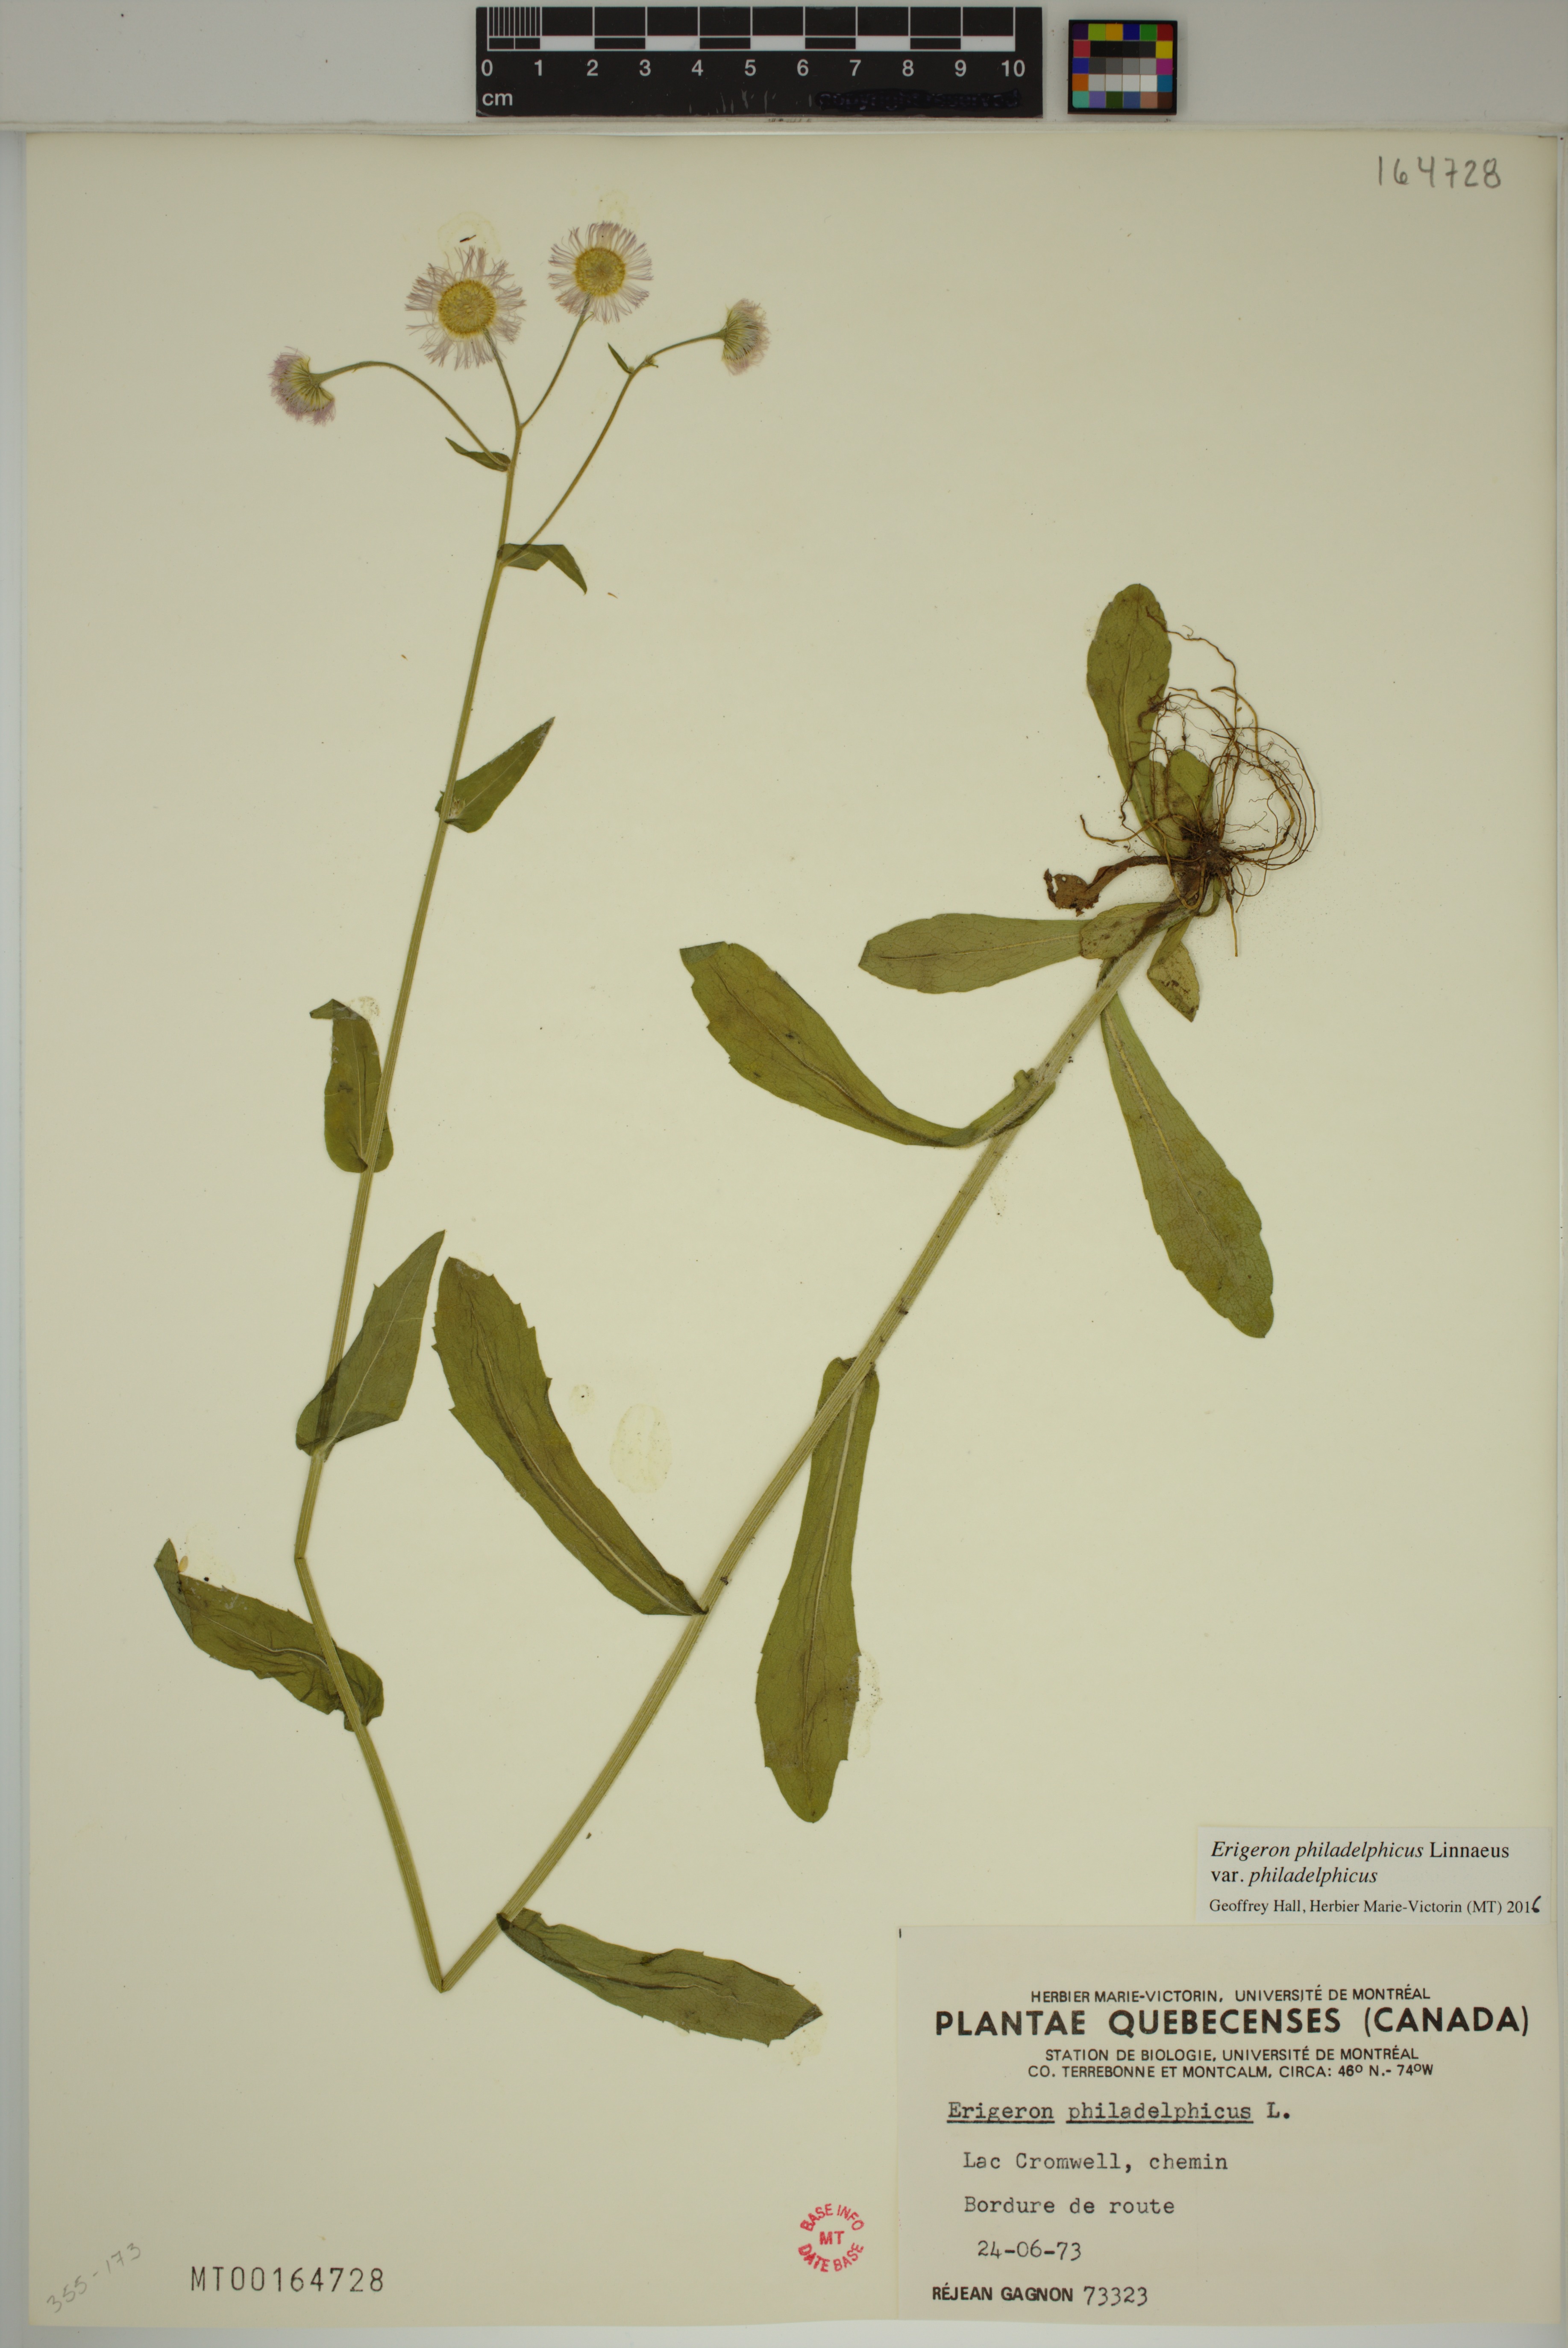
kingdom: Plantae
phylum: Tracheophyta
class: Magnoliopsida
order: Asterales
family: Asteraceae
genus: Erigeron
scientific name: Erigeron philadelphicus
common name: Robin's-plantain
